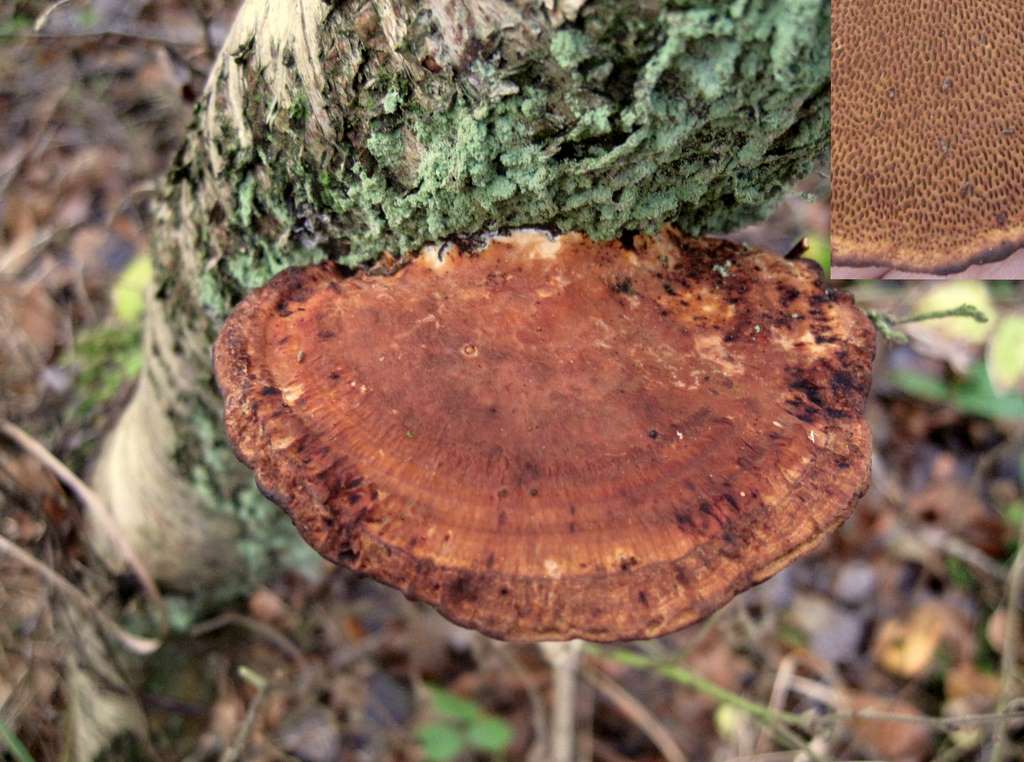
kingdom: Fungi
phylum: Basidiomycota
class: Agaricomycetes
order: Polyporales
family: Polyporaceae
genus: Daedaleopsis
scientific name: Daedaleopsis confragosa
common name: rødmende læderporesvamp
